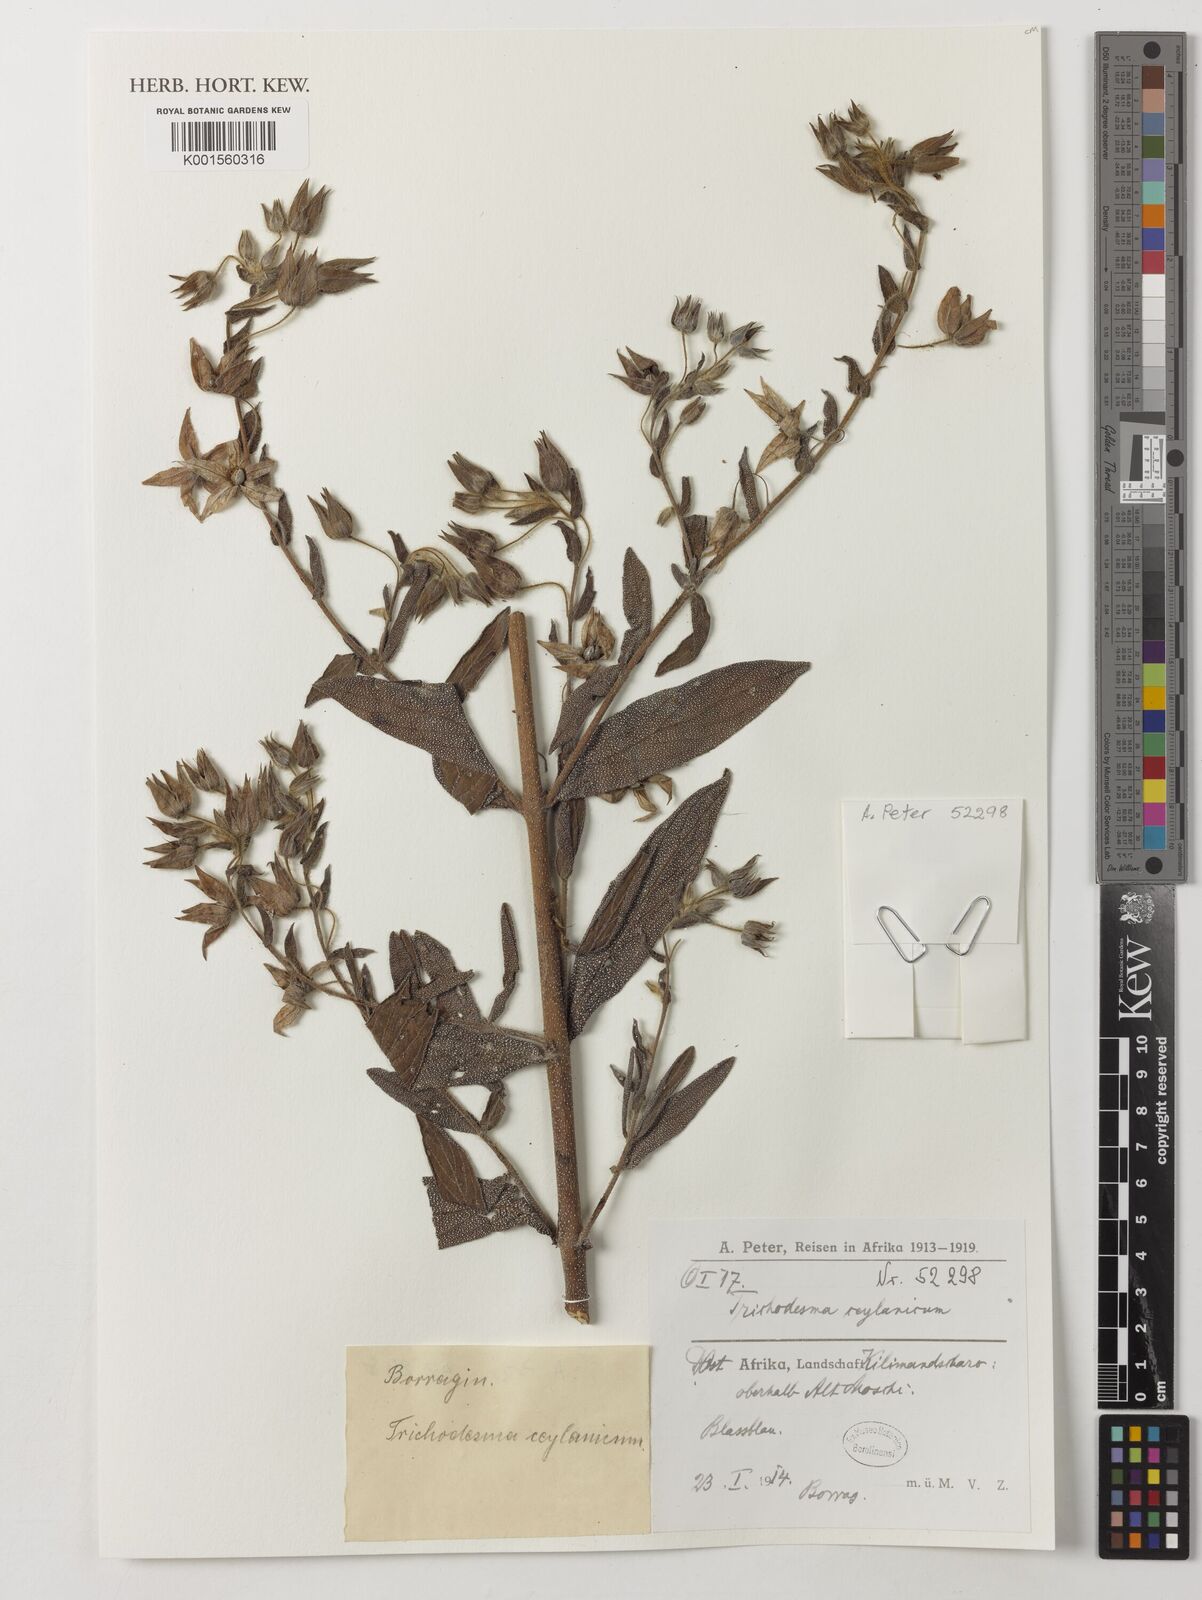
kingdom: Plantae
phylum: Tracheophyta
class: Magnoliopsida
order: Boraginales
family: Boraginaceae
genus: Trichodesma
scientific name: Trichodesma zeylanicum
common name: Camelbush
